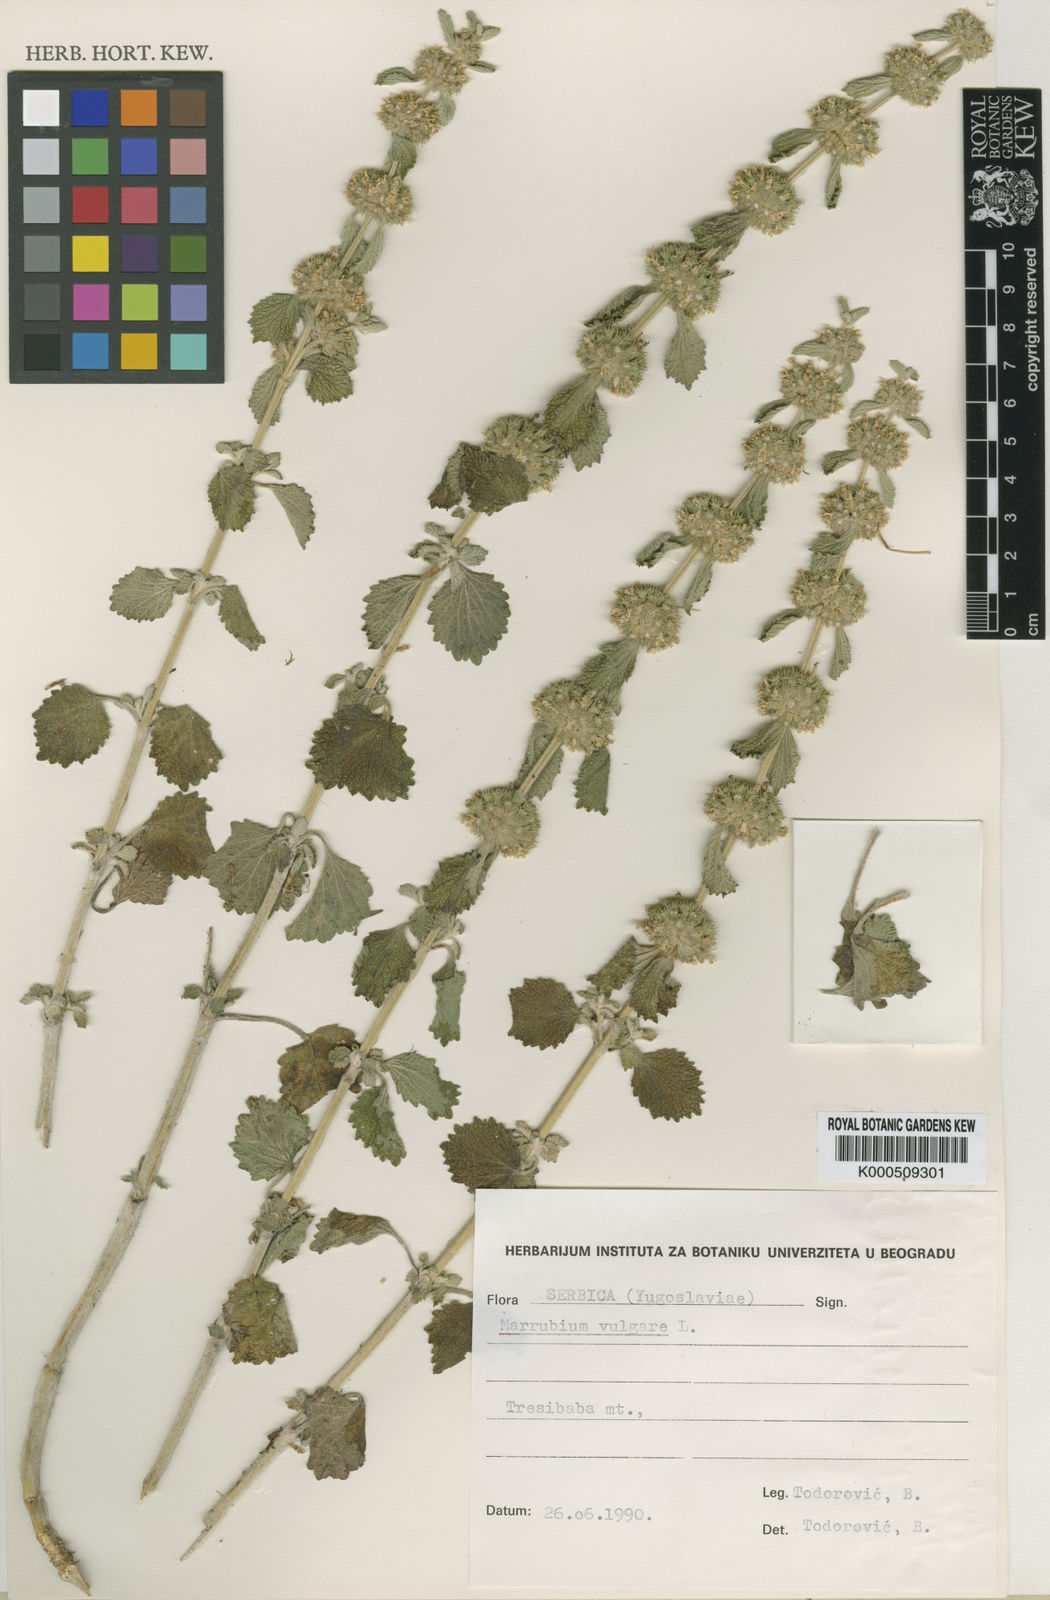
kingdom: Plantae
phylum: Tracheophyta
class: Magnoliopsida
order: Lamiales
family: Lamiaceae
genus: Marrubium
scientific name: Marrubium vulgare
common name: Horehound
